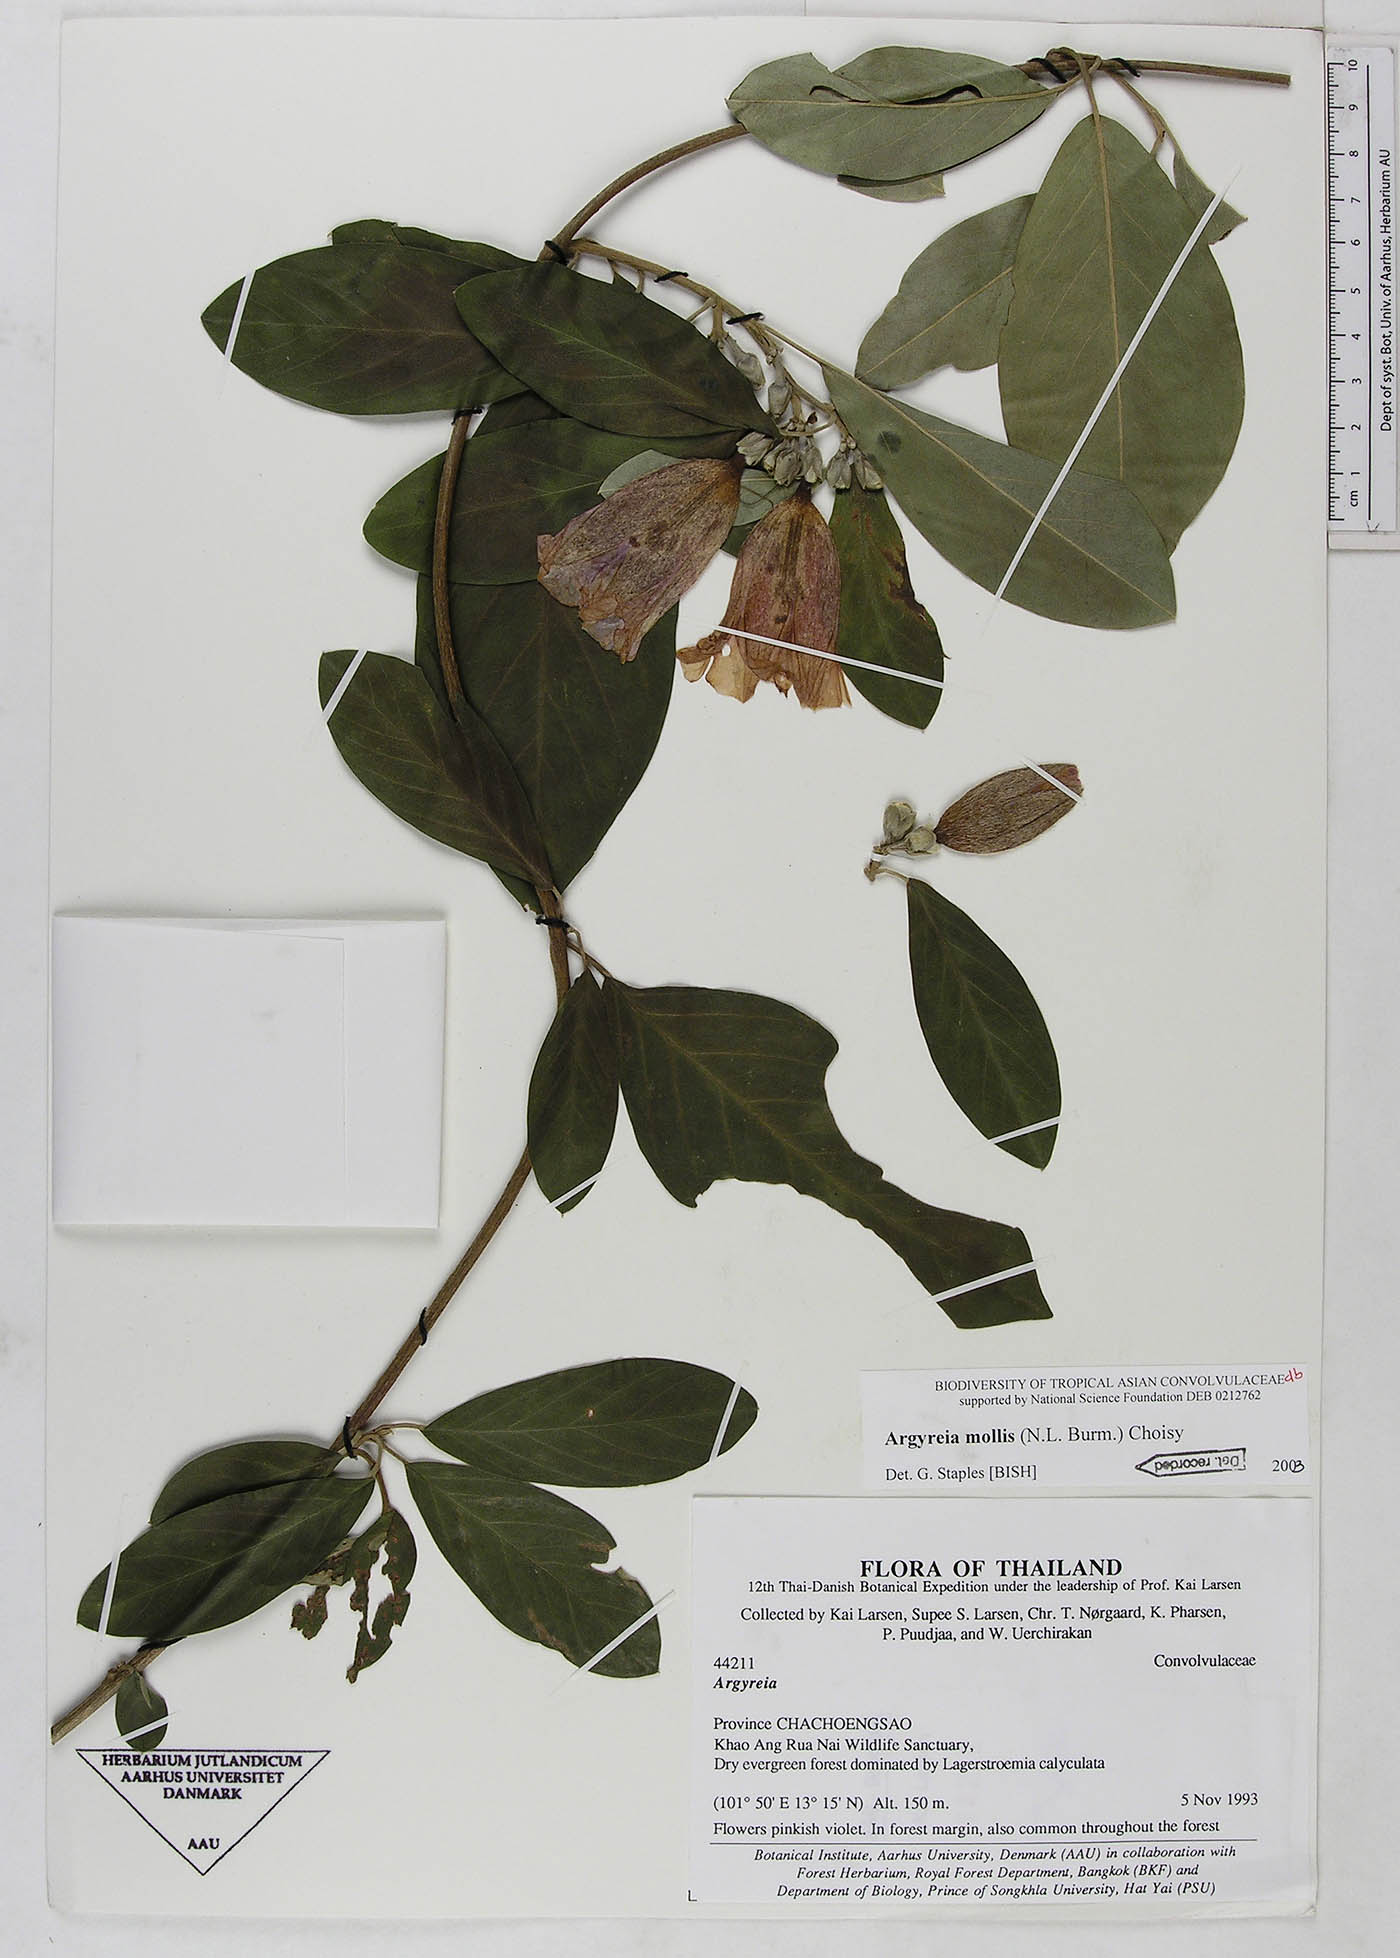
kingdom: Plantae
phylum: Tracheophyta
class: Magnoliopsida
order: Solanales
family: Convolvulaceae
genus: Argyreia
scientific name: Argyreia mollis
